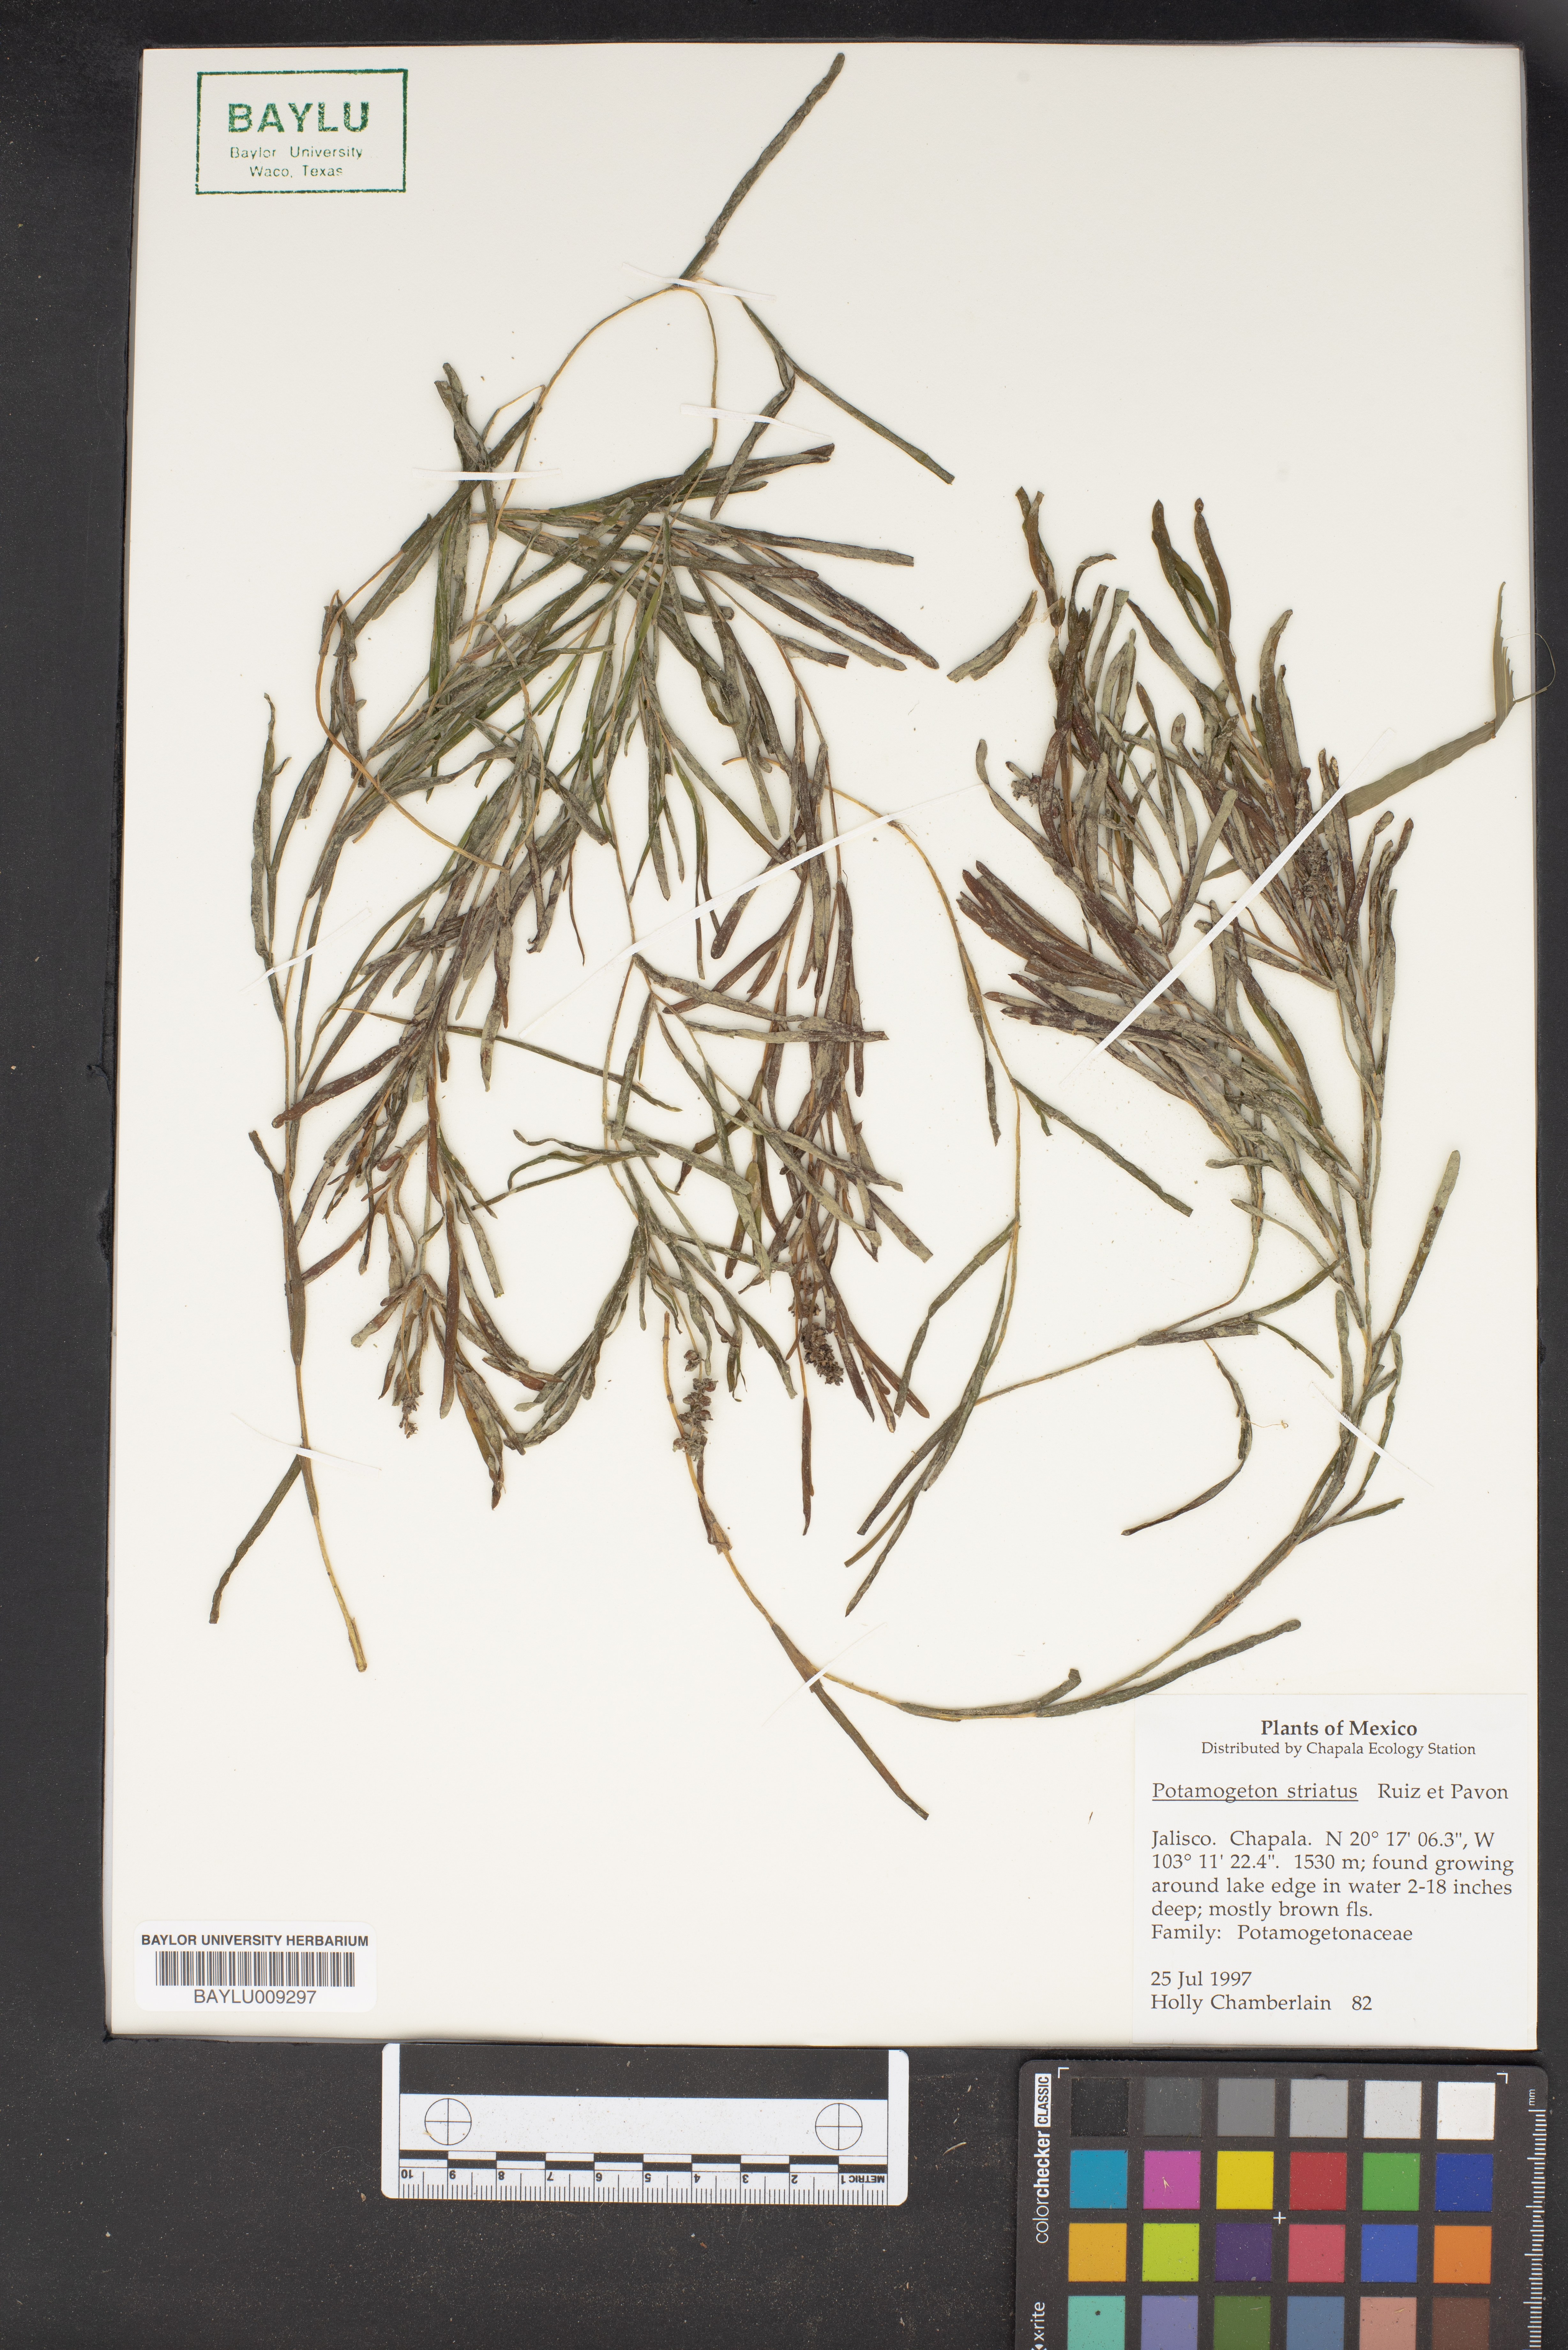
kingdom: Plantae
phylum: Tracheophyta
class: Liliopsida
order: Alismatales
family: Potamogetonaceae
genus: Stuckenia
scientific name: Stuckenia striata
